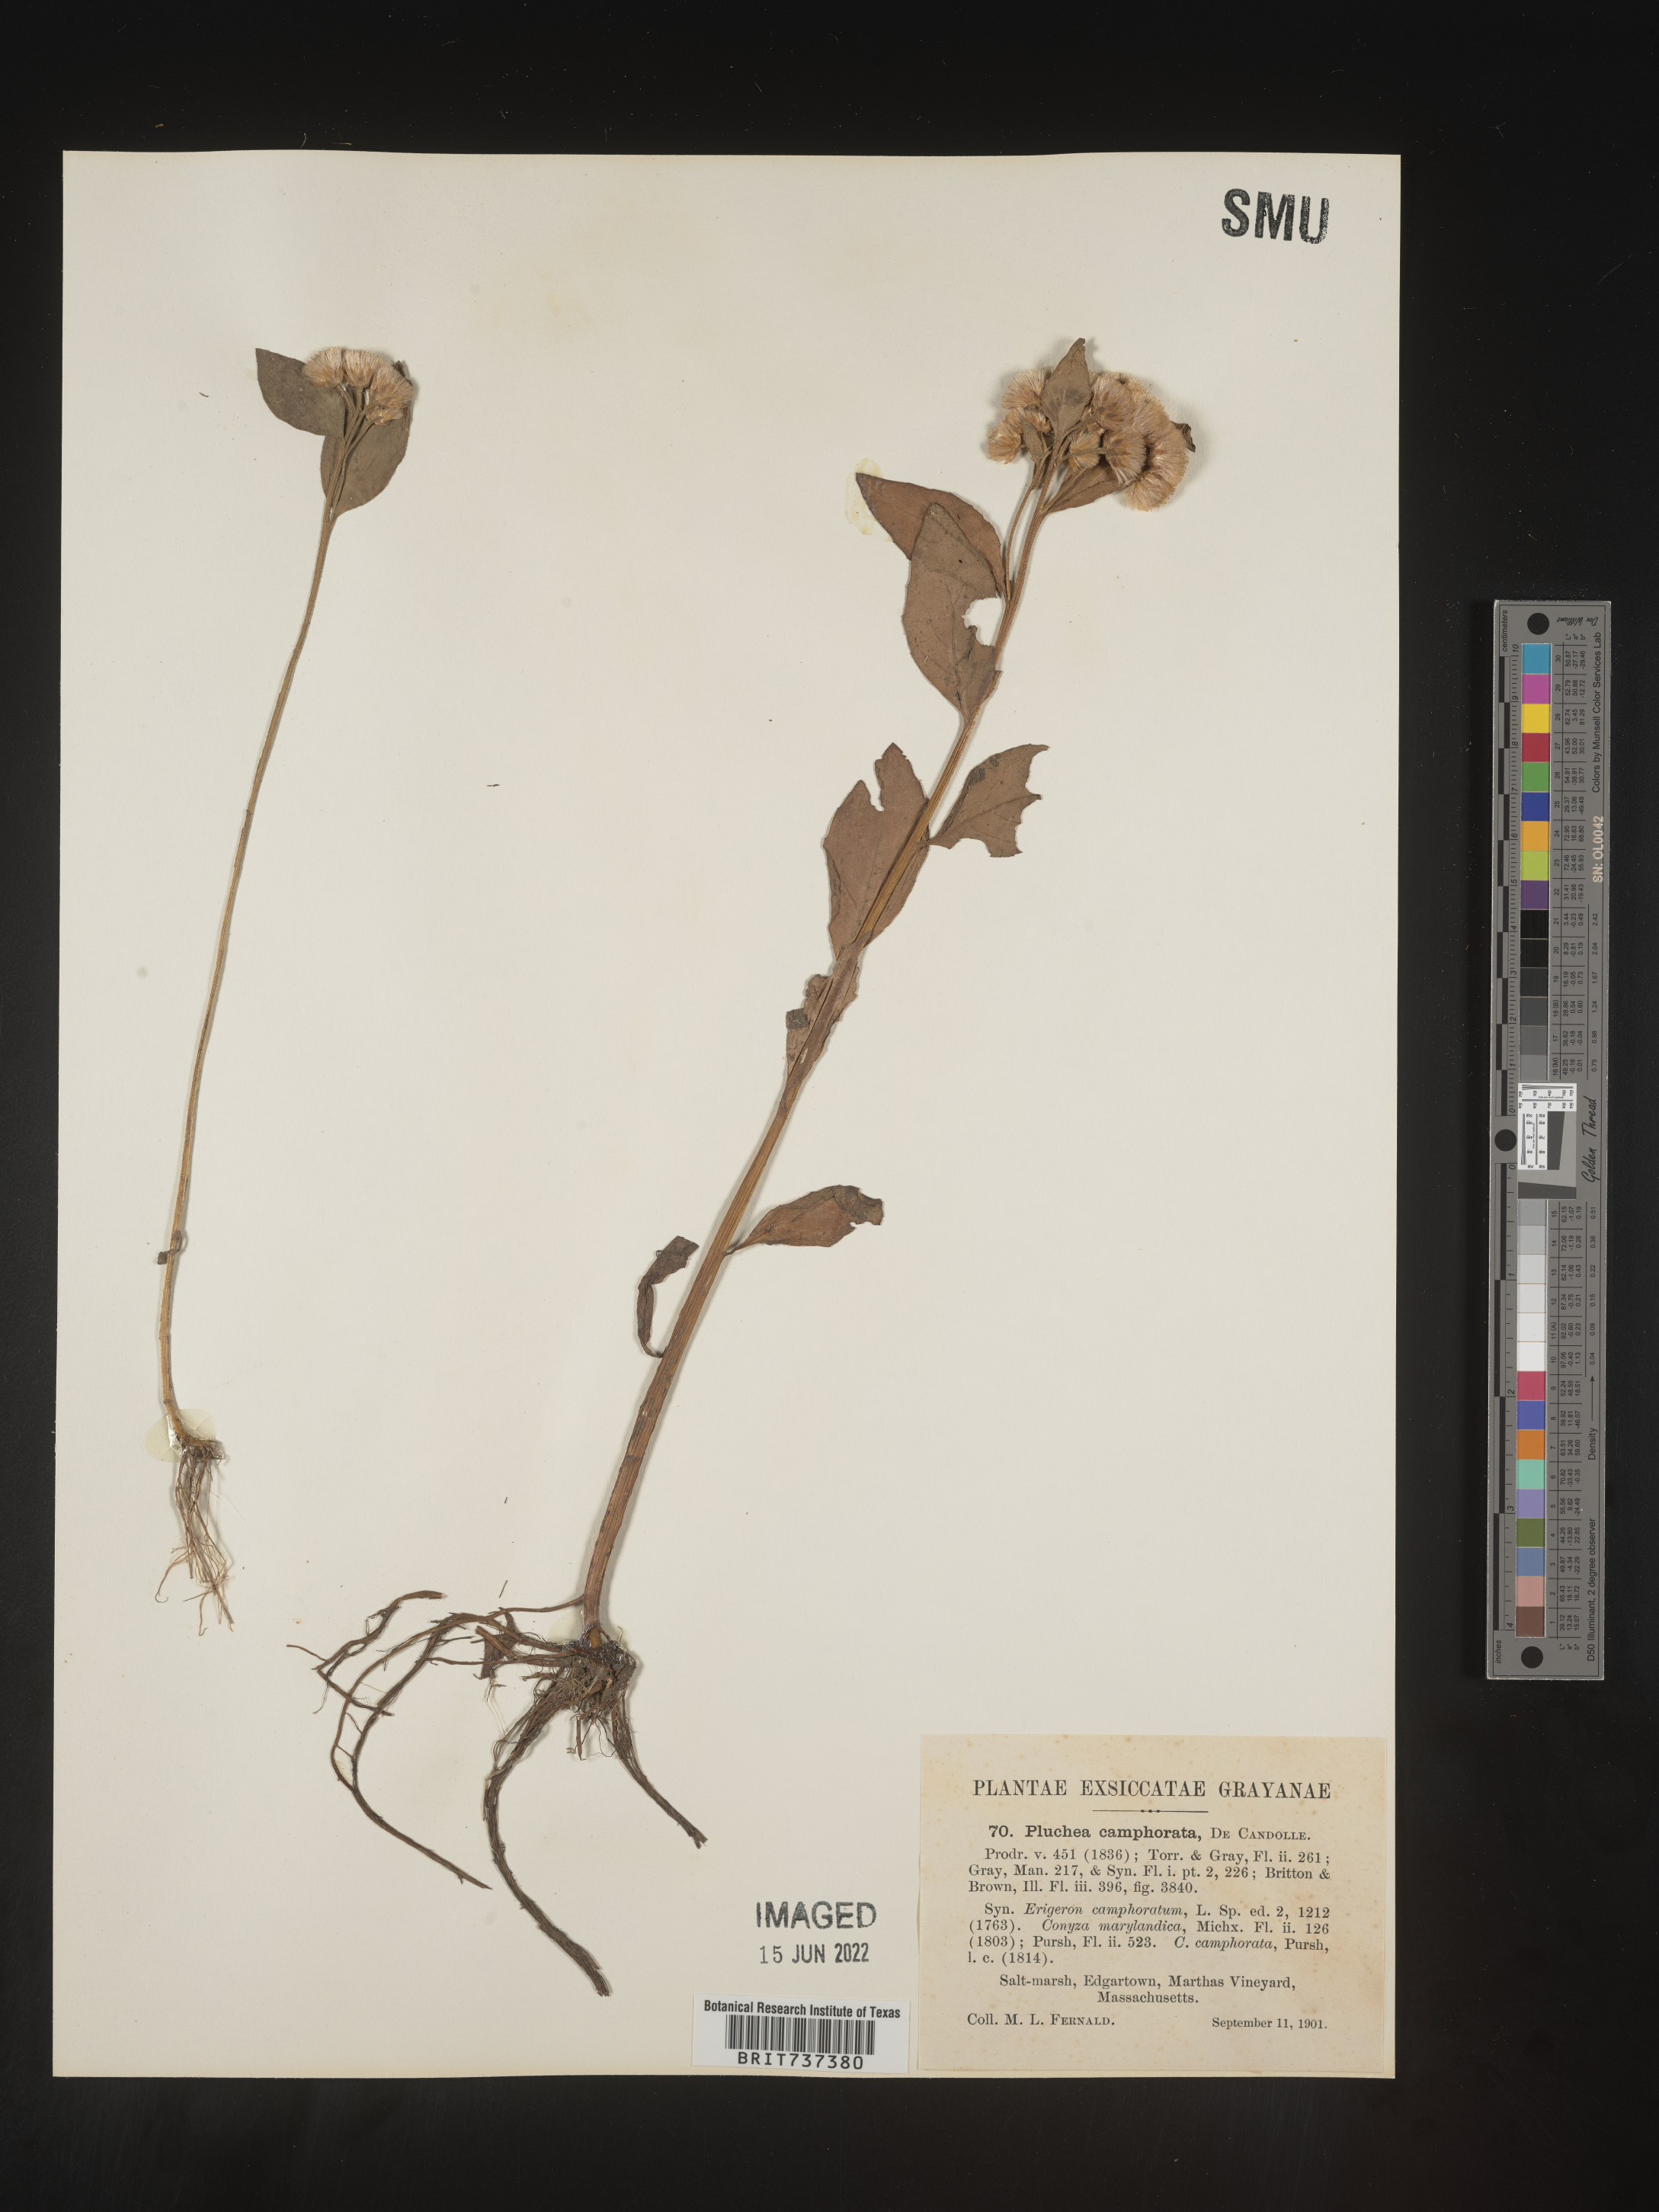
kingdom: Plantae
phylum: Tracheophyta
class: Magnoliopsida
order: Asterales
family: Asteraceae
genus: Pluchea
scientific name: Pluchea odorata
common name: Saltmarsh fleabane
